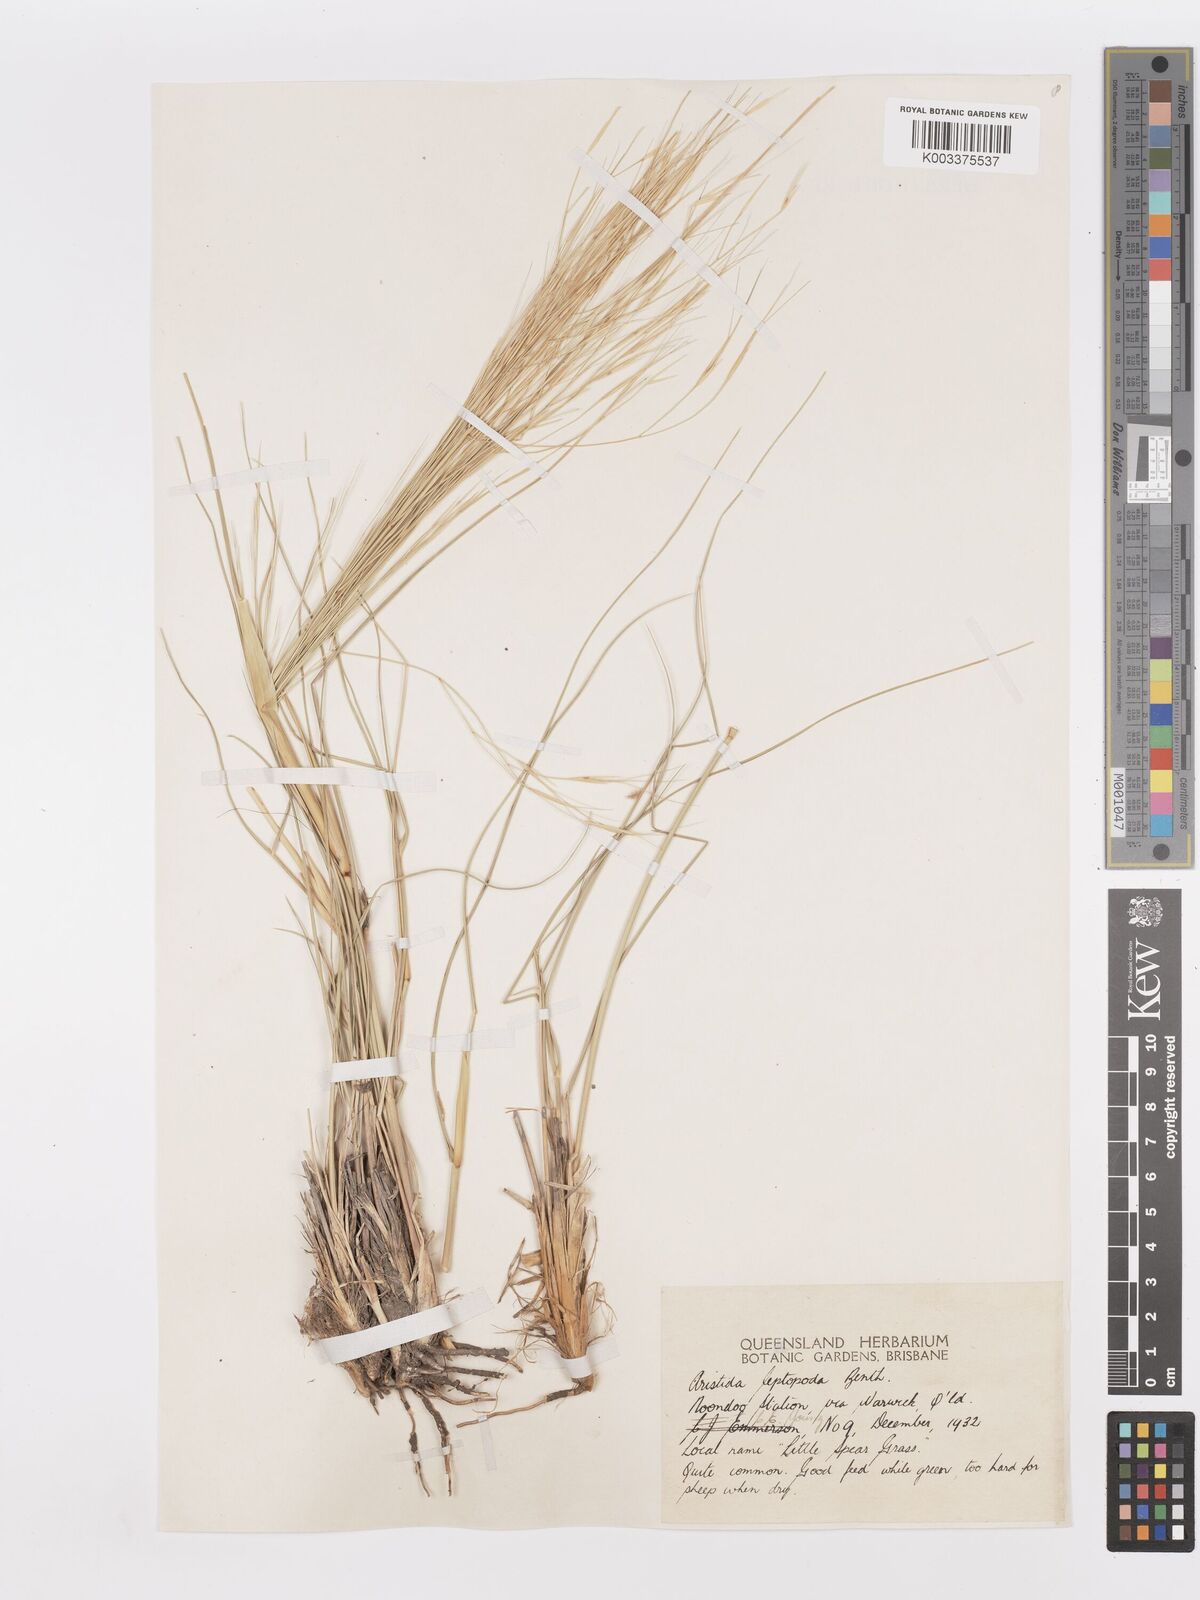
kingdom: Plantae
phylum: Tracheophyta
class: Liliopsida
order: Poales
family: Poaceae
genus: Aristida
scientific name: Aristida leptopoda
